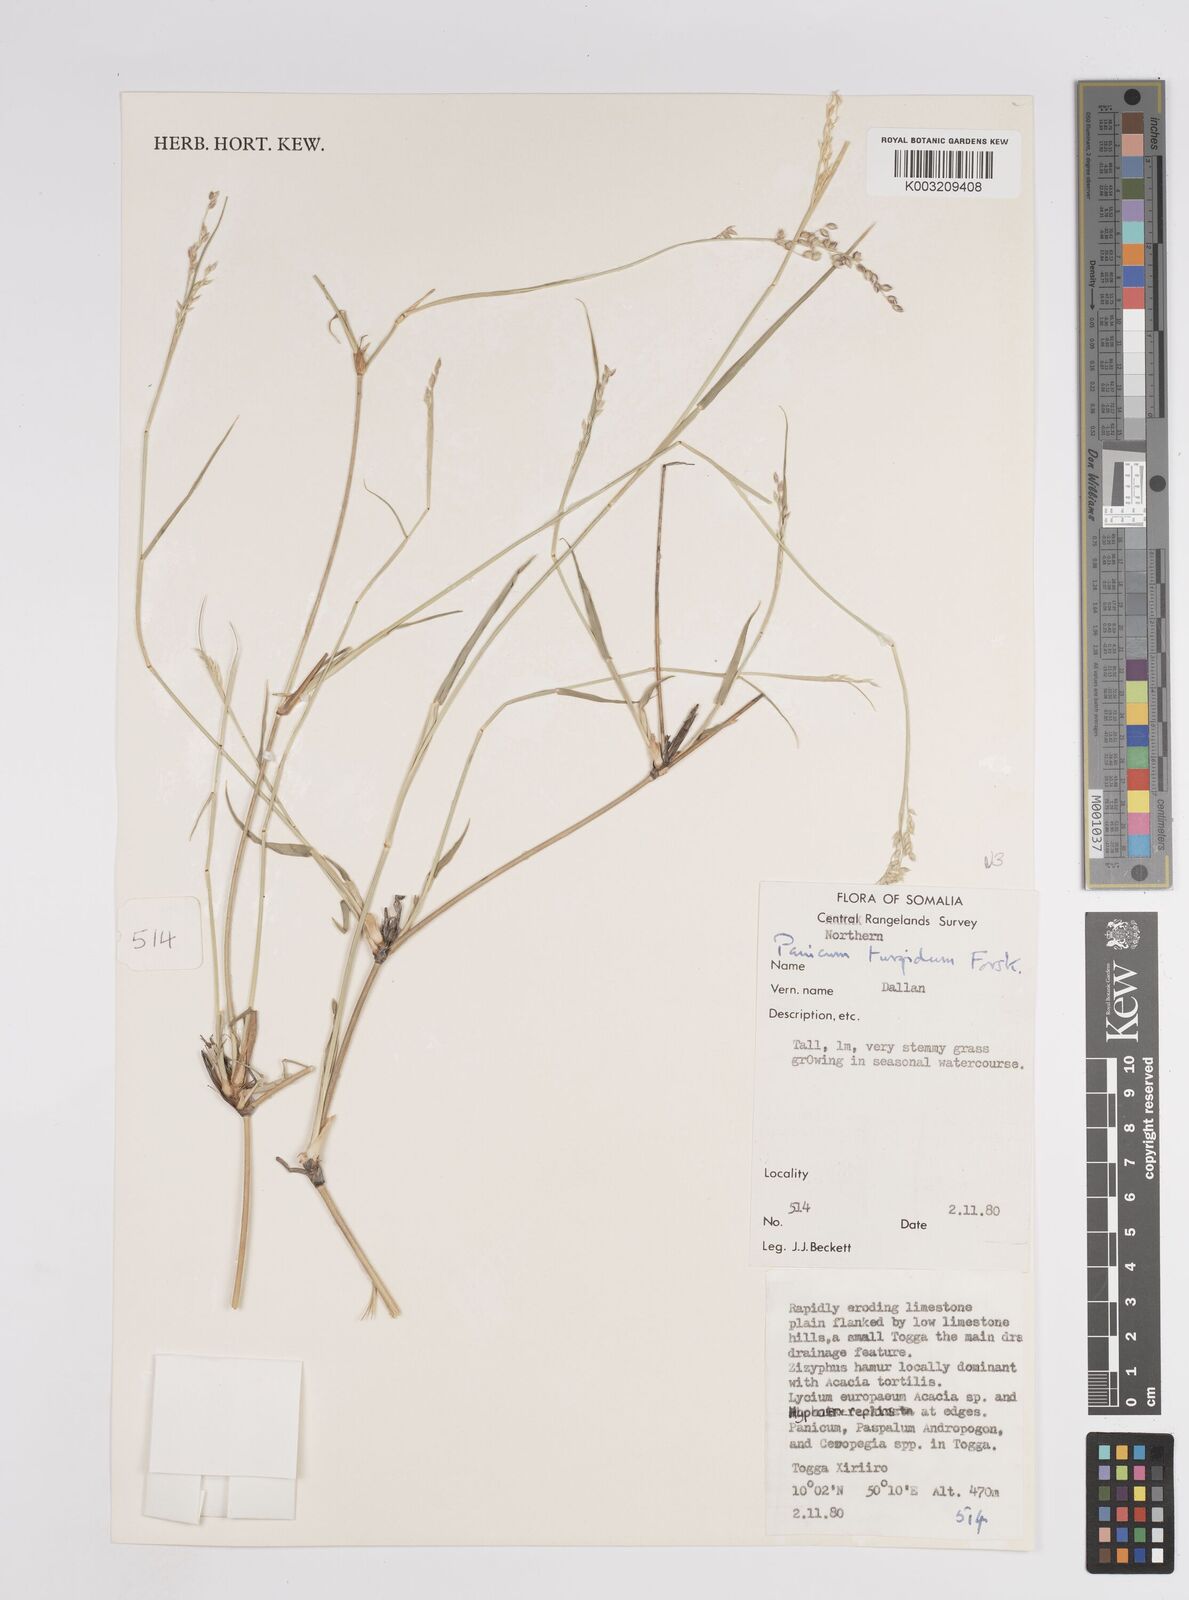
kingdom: Plantae
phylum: Tracheophyta
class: Liliopsida
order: Poales
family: Poaceae
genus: Panicum
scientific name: Panicum turgidum
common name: Desert grass
